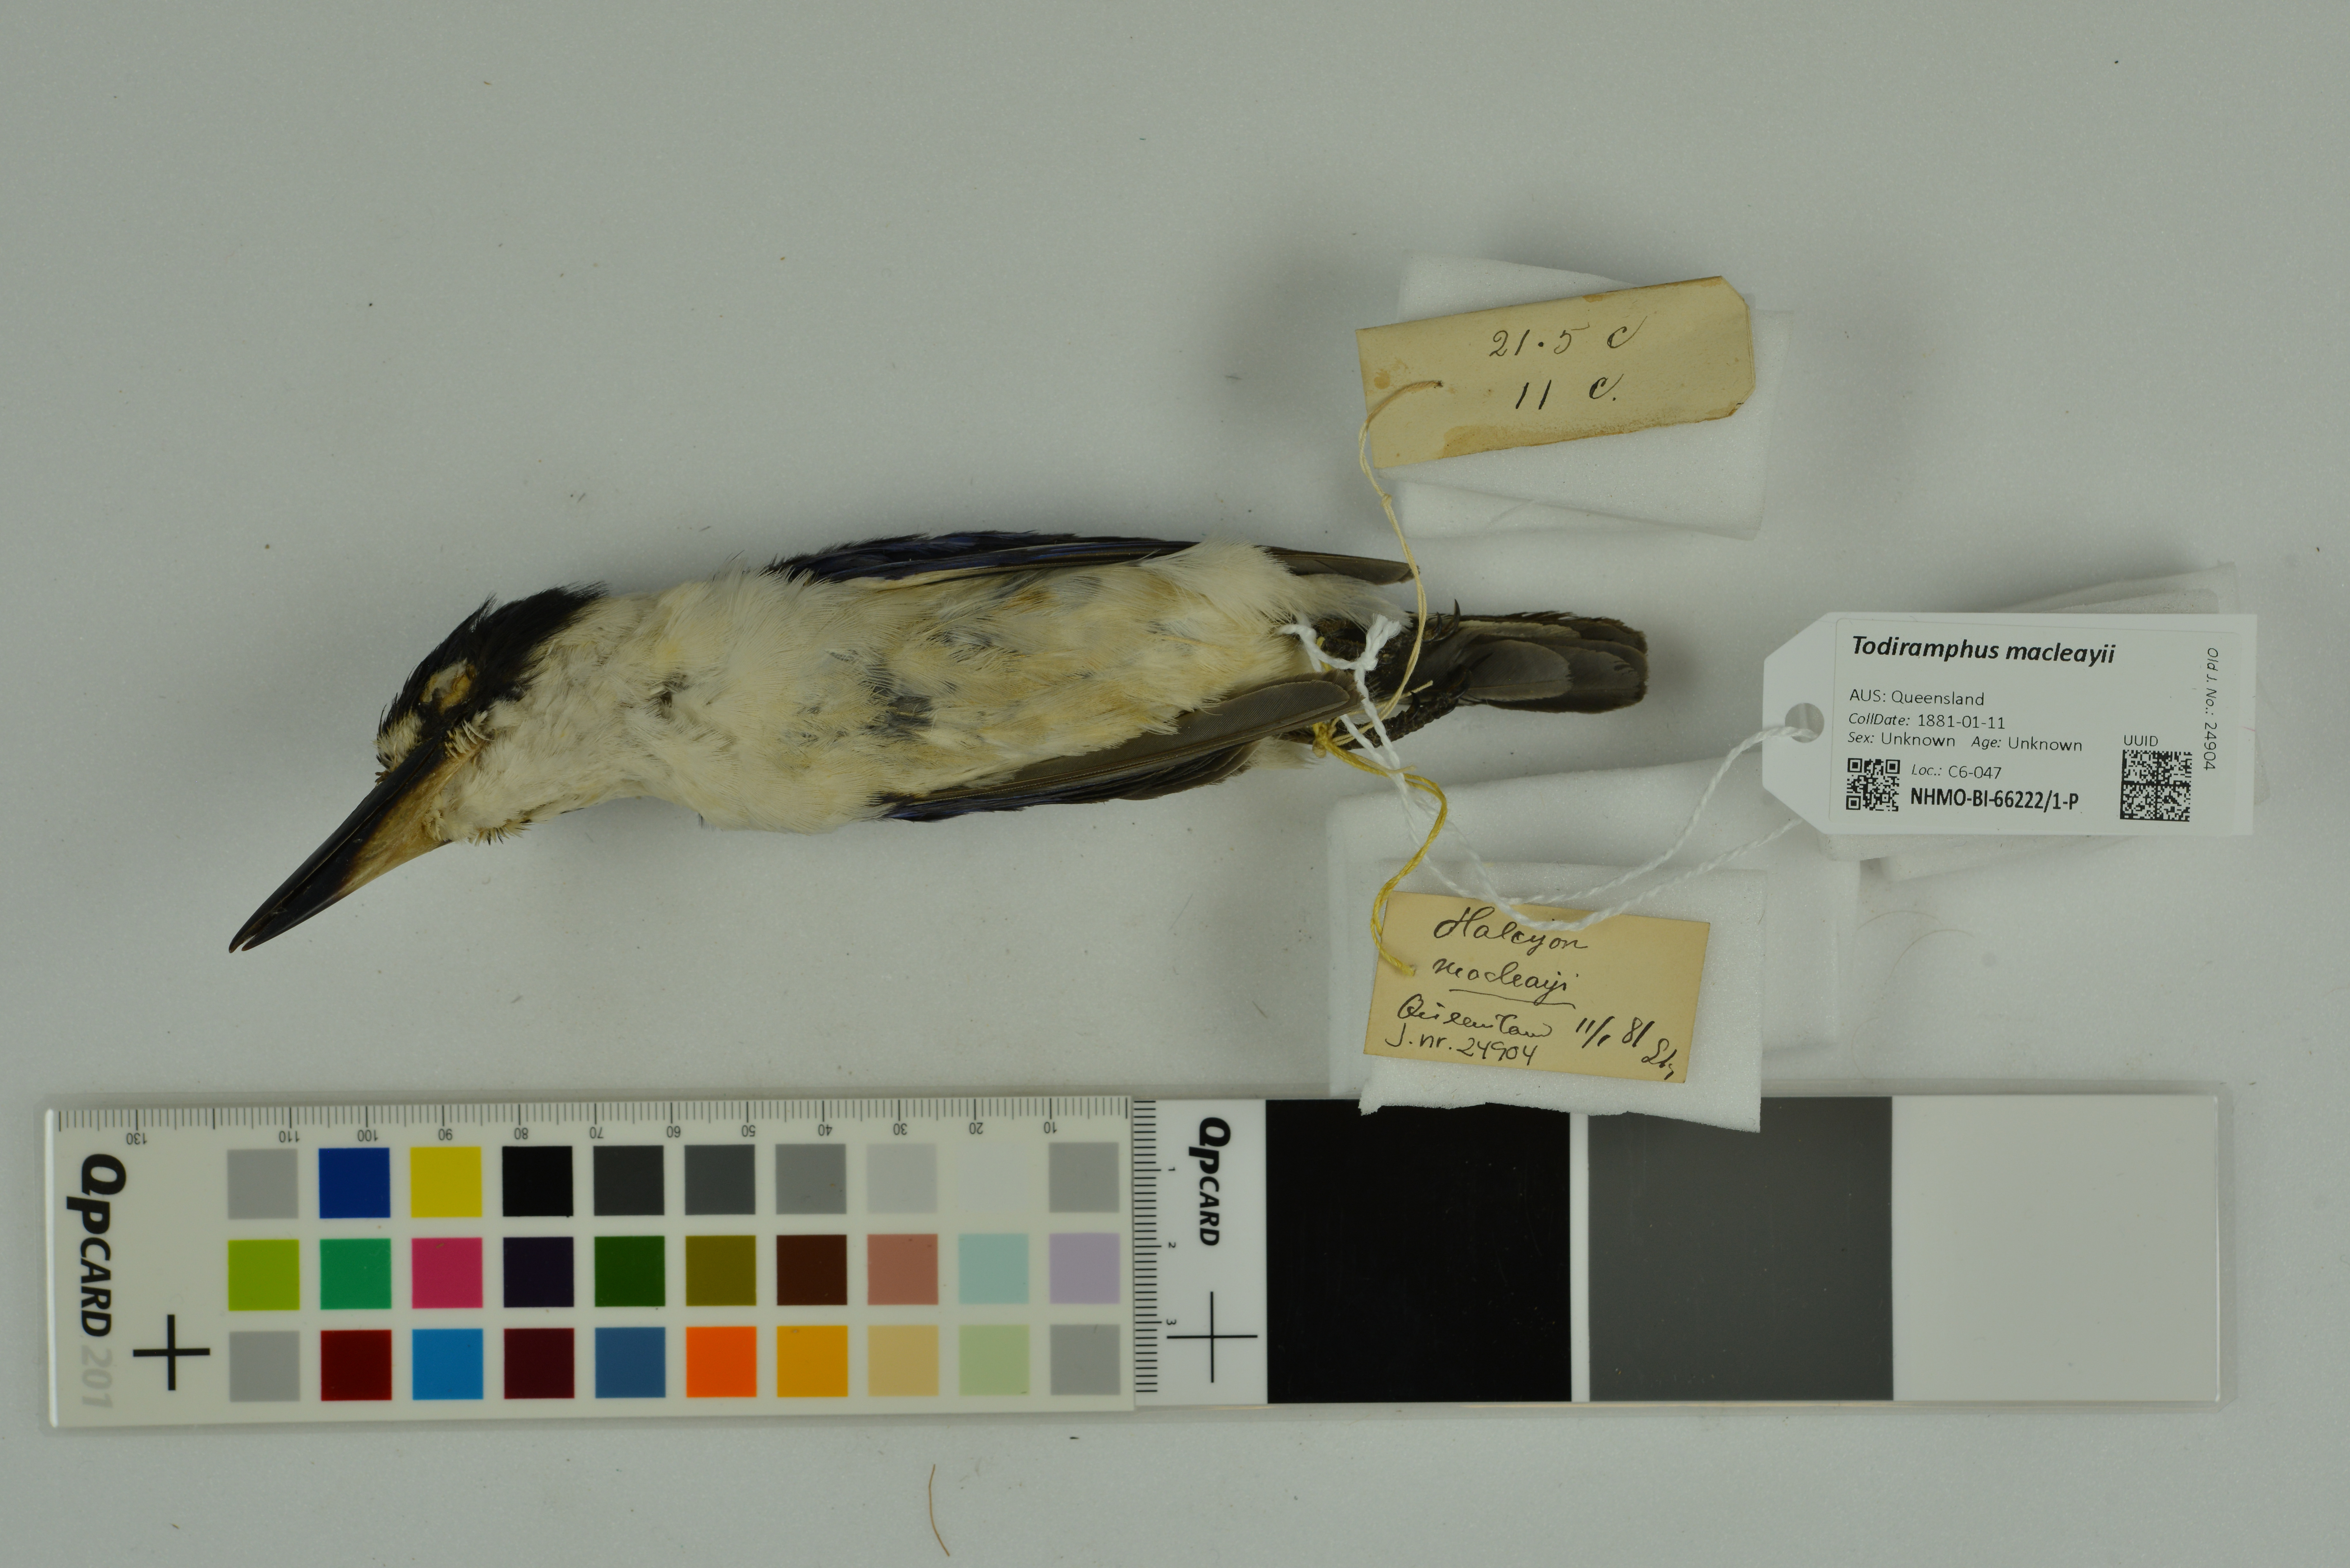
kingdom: Animalia
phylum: Chordata
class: Aves
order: Coraciiformes
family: Alcedinidae
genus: Todiramphus
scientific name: Todiramphus macleayii
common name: Forest kingfisher
